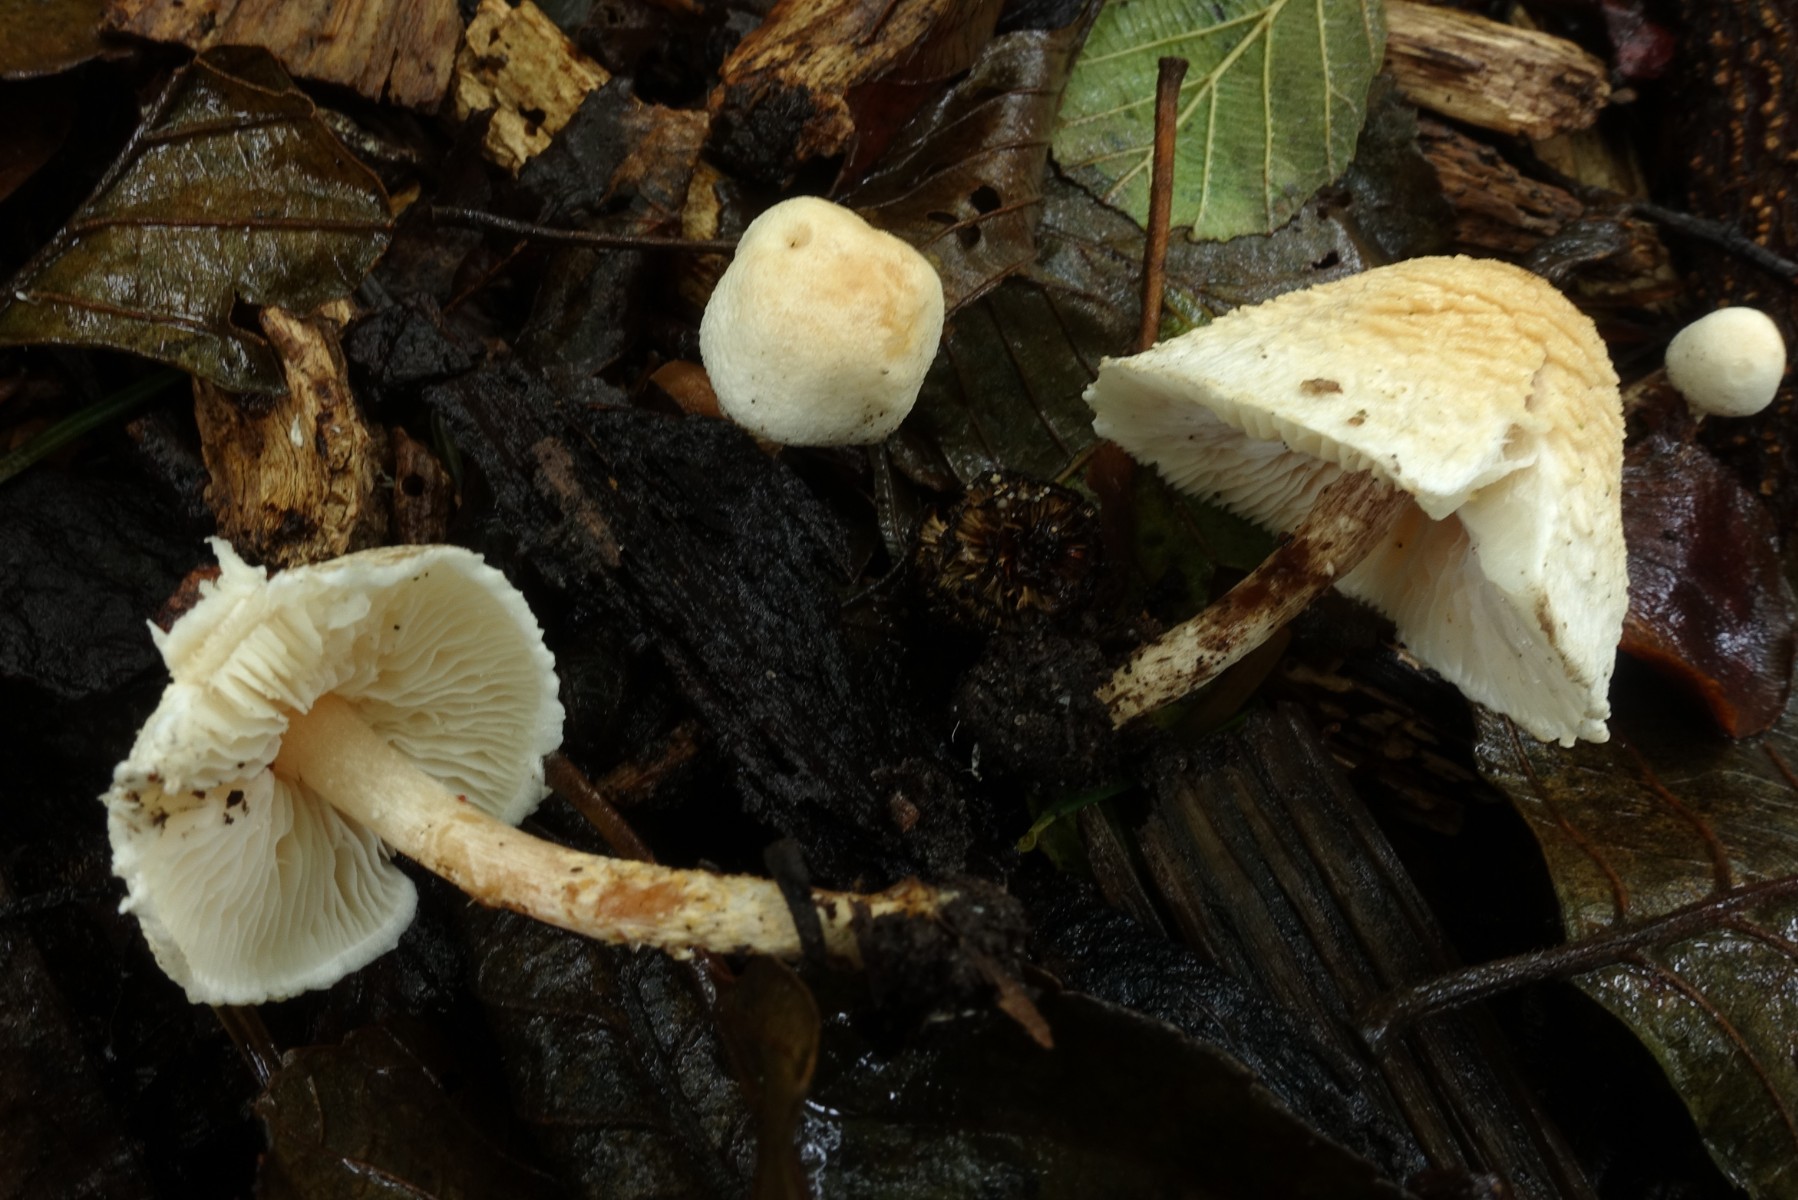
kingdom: Fungi
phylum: Basidiomycota
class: Agaricomycetes
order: Agaricales
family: Agaricaceae
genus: Lepiota
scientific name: Lepiota subalba
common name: hvidlig parasolhat
